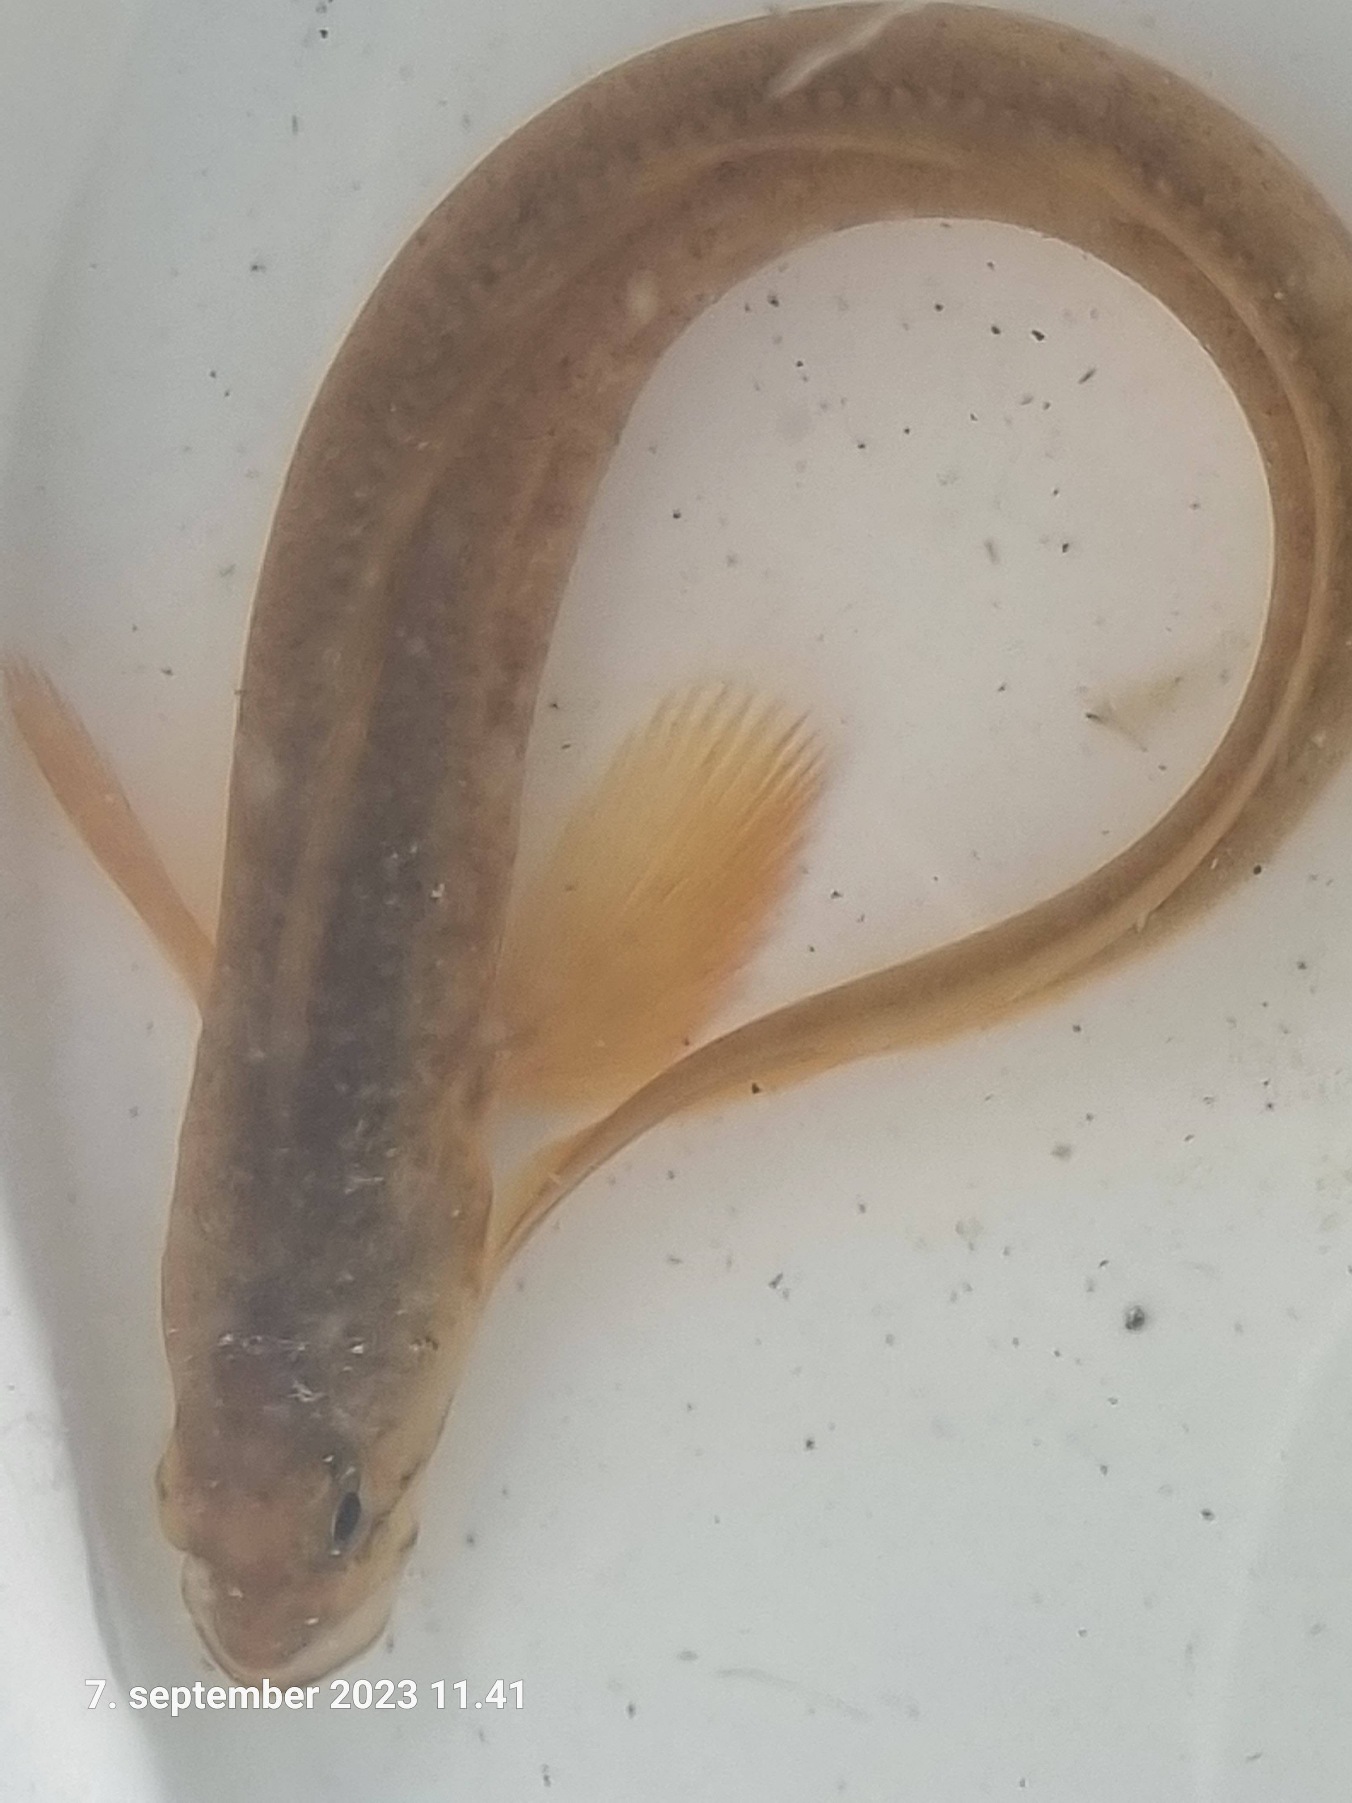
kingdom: Animalia
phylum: Chordata
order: Perciformes
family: Zoarcidae
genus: Zoarces
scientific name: Zoarces viviparus
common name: Ålekvabbe
